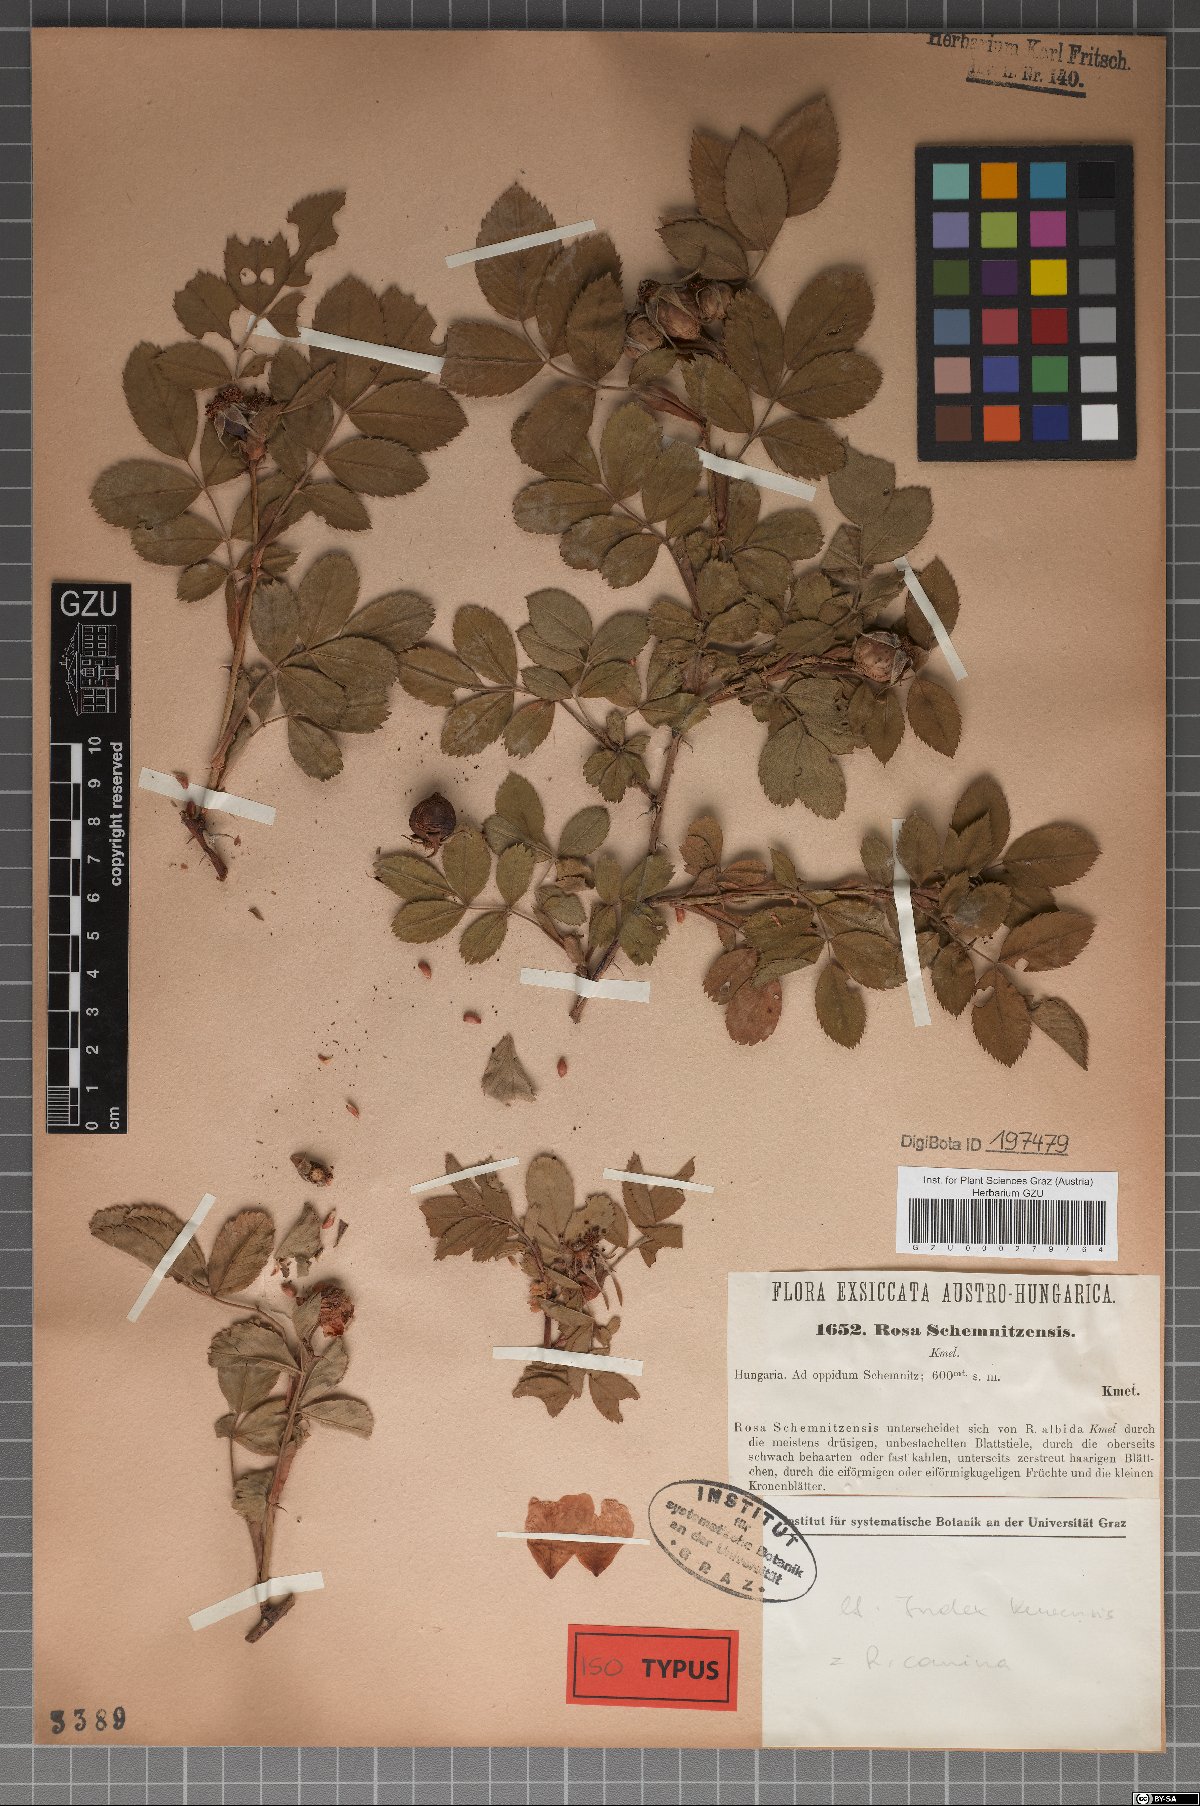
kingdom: Plantae
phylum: Tracheophyta
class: Magnoliopsida
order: Rosales
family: Rosaceae
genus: Rosa
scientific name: Rosa caesia
